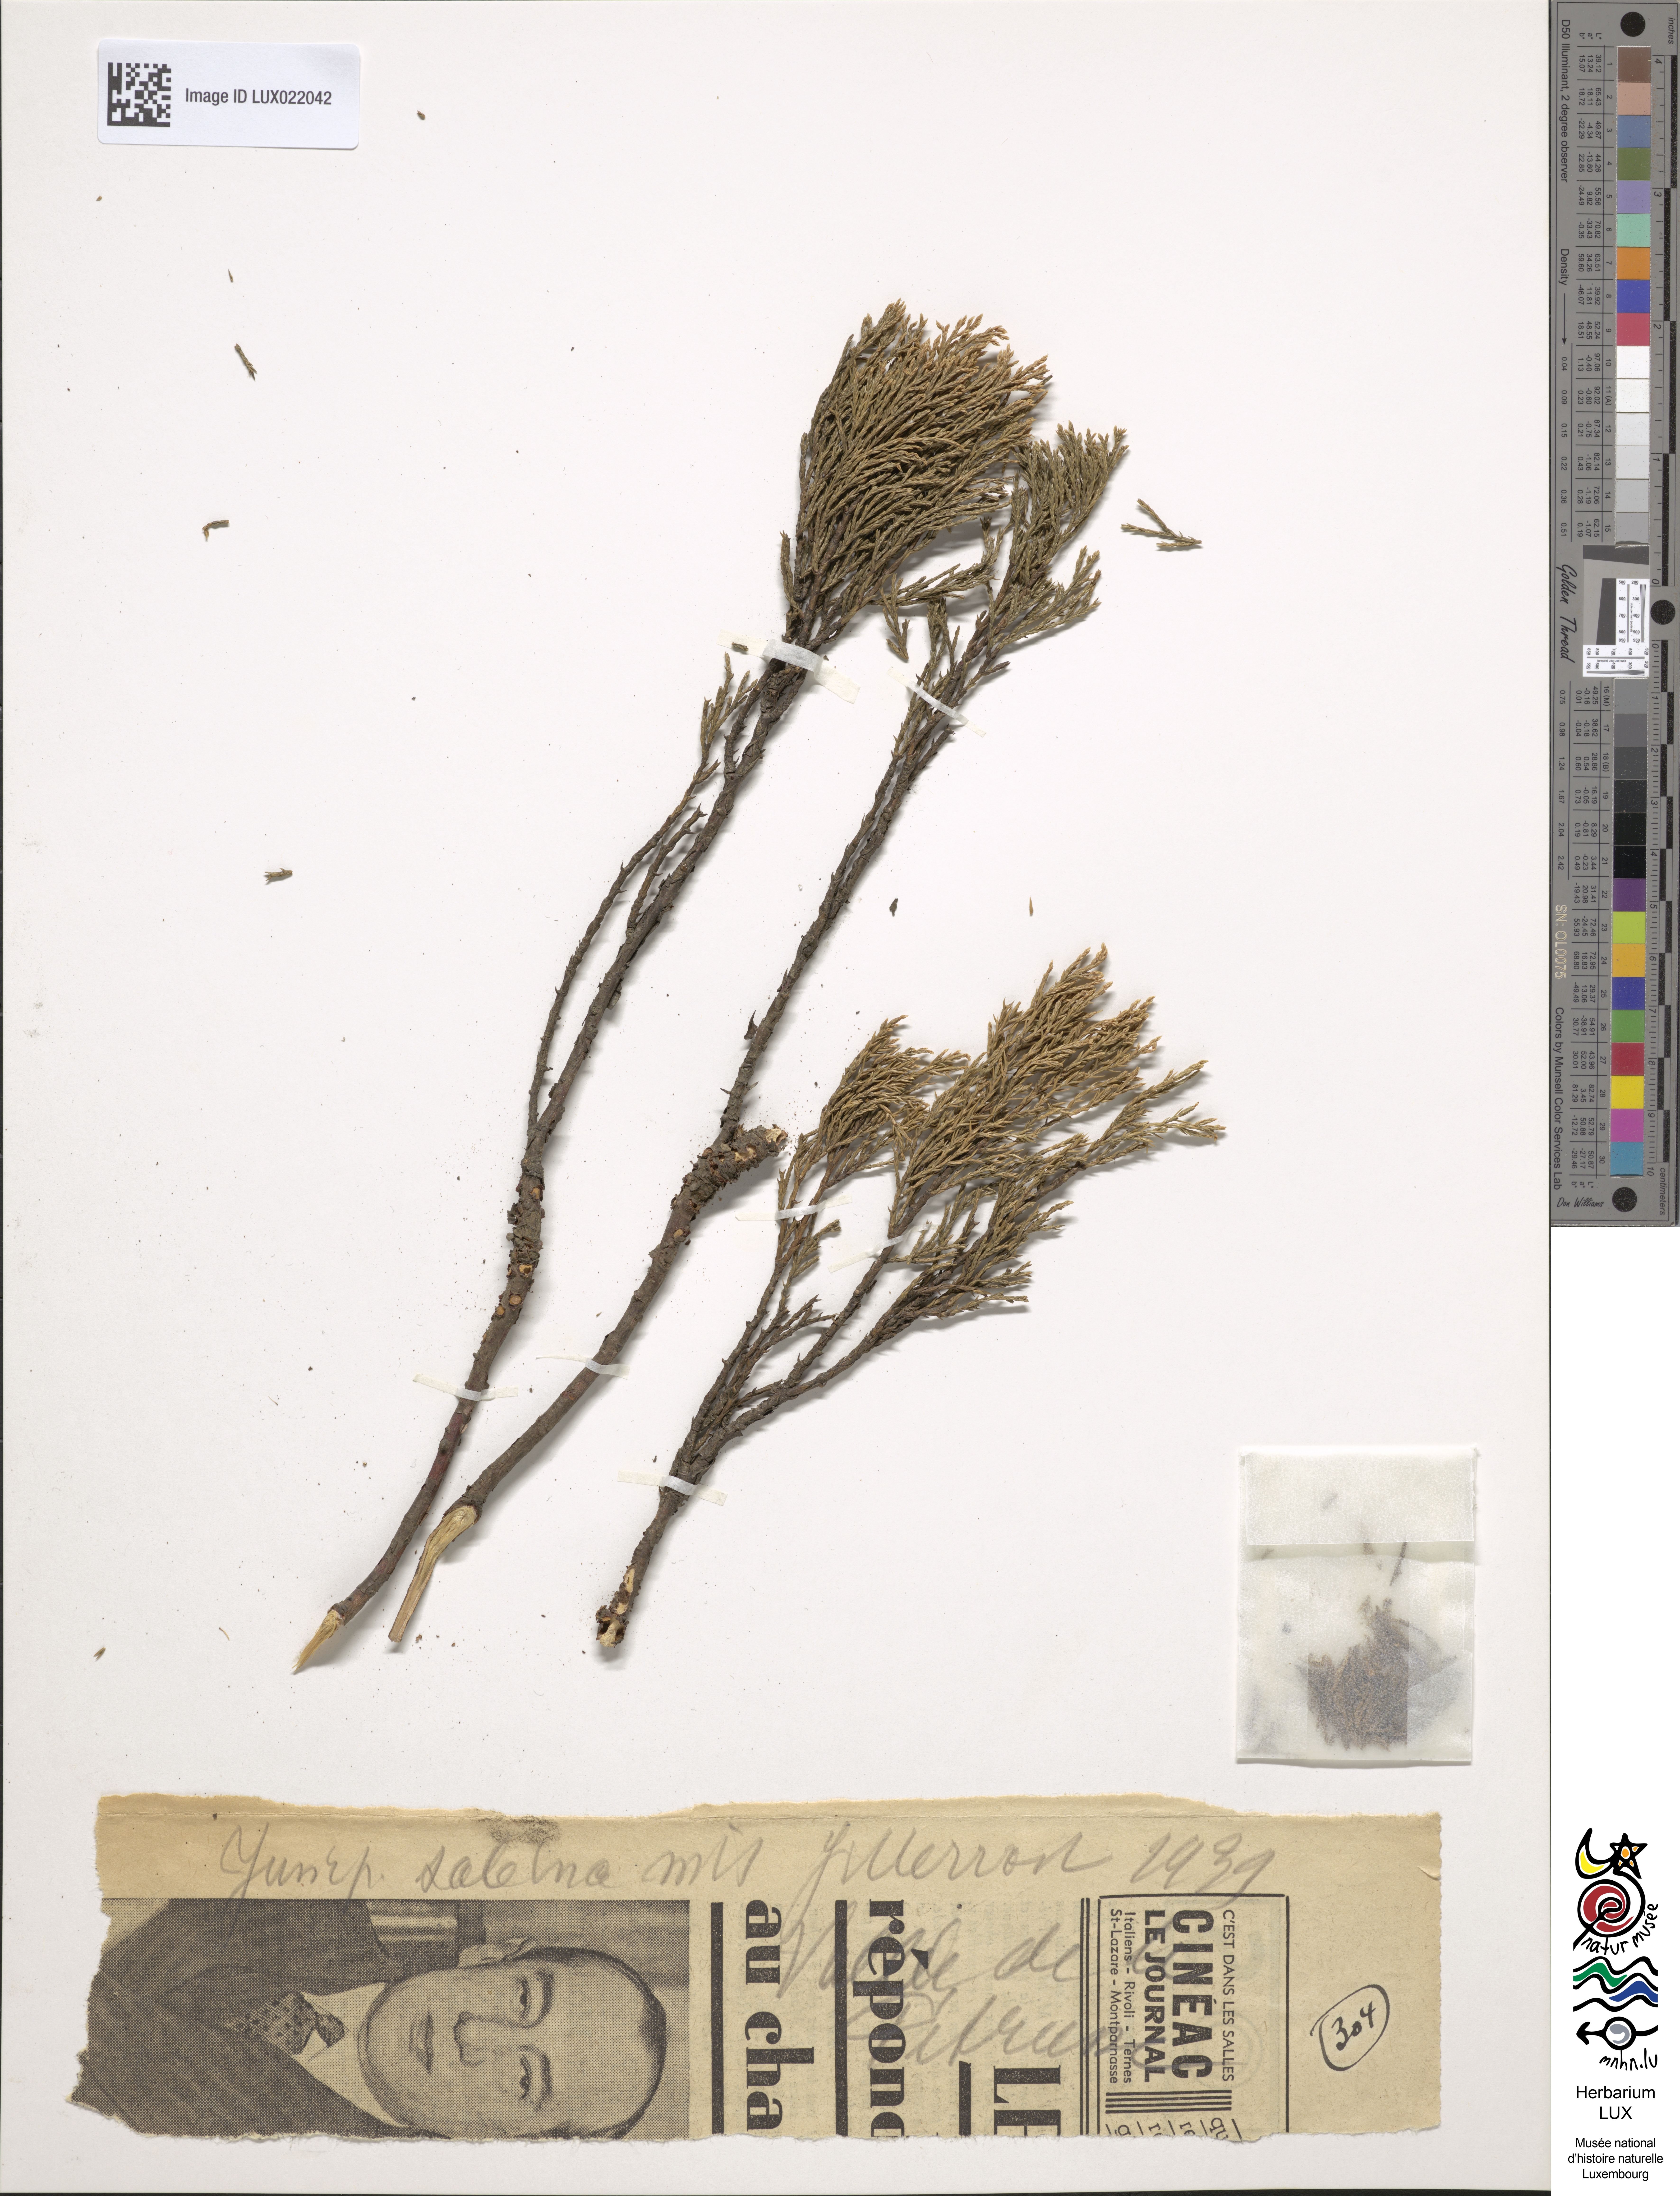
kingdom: Plantae
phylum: Tracheophyta
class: Pinopsida
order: Pinales
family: Cupressaceae
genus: Juniperus
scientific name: Juniperus sabina
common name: Savin
